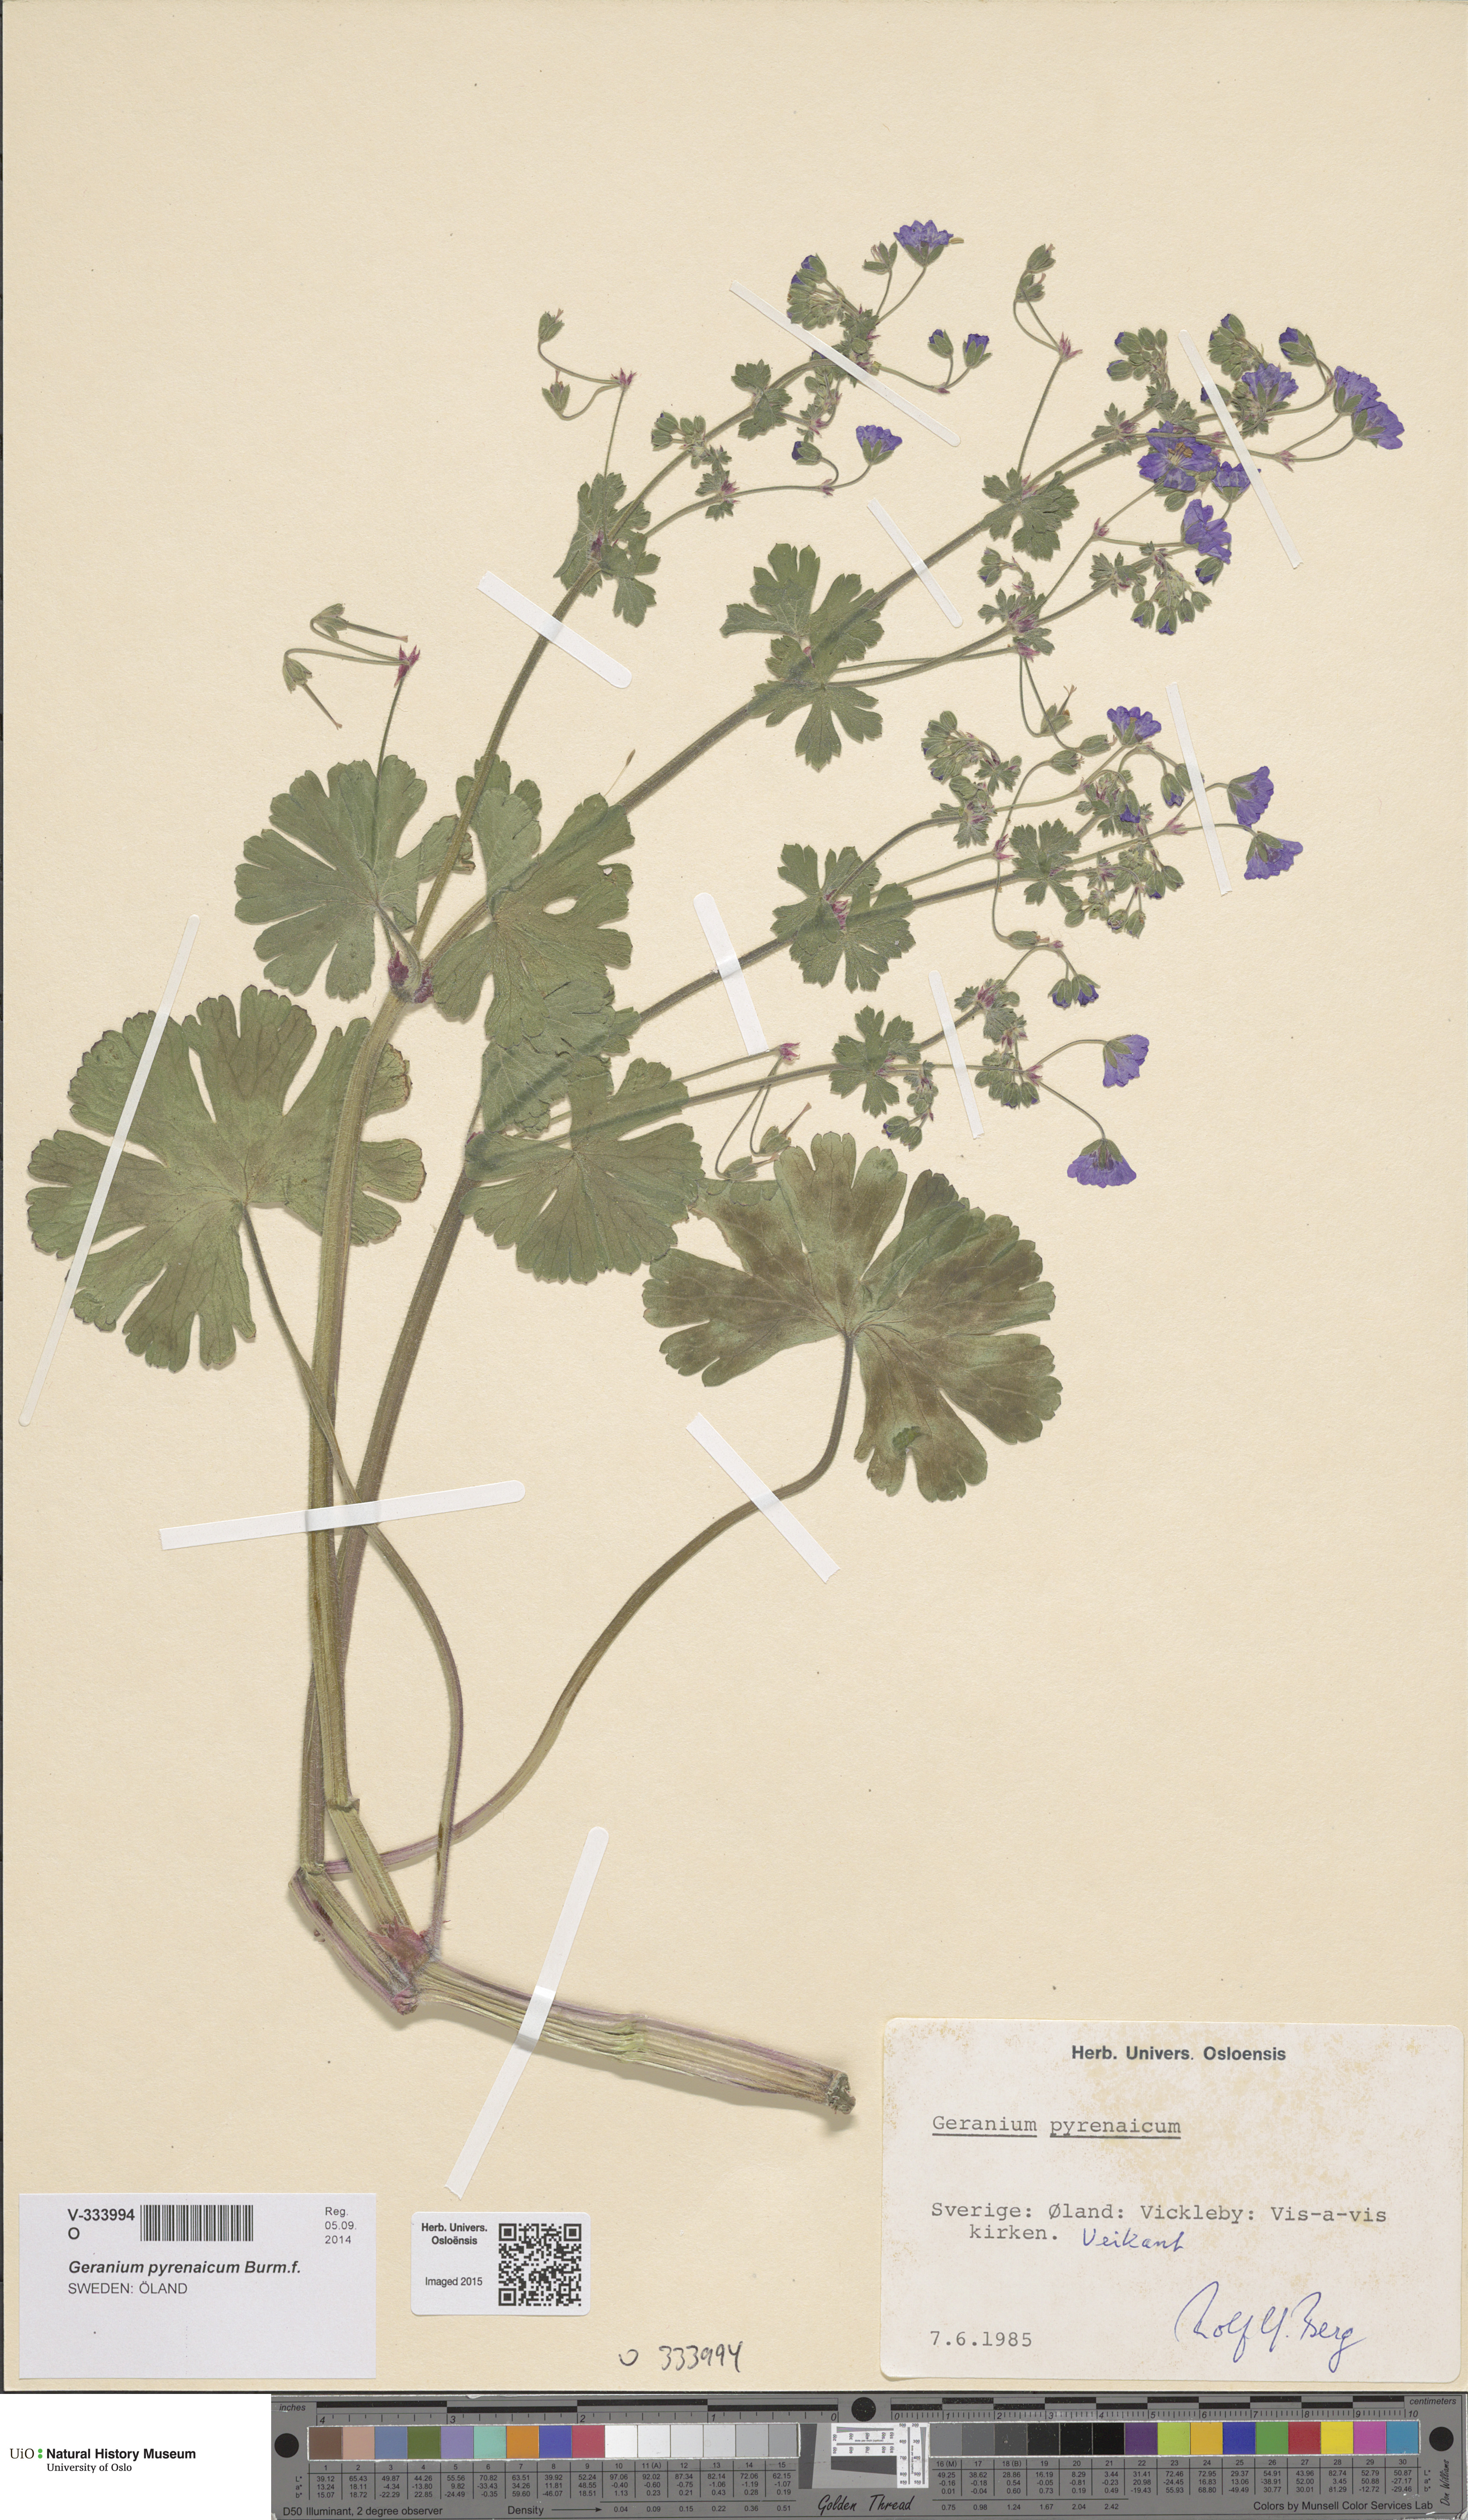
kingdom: Plantae
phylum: Tracheophyta
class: Magnoliopsida
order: Geraniales
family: Geraniaceae
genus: Geranium
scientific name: Geranium pyrenaicum
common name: Hedgerow crane's-bill
